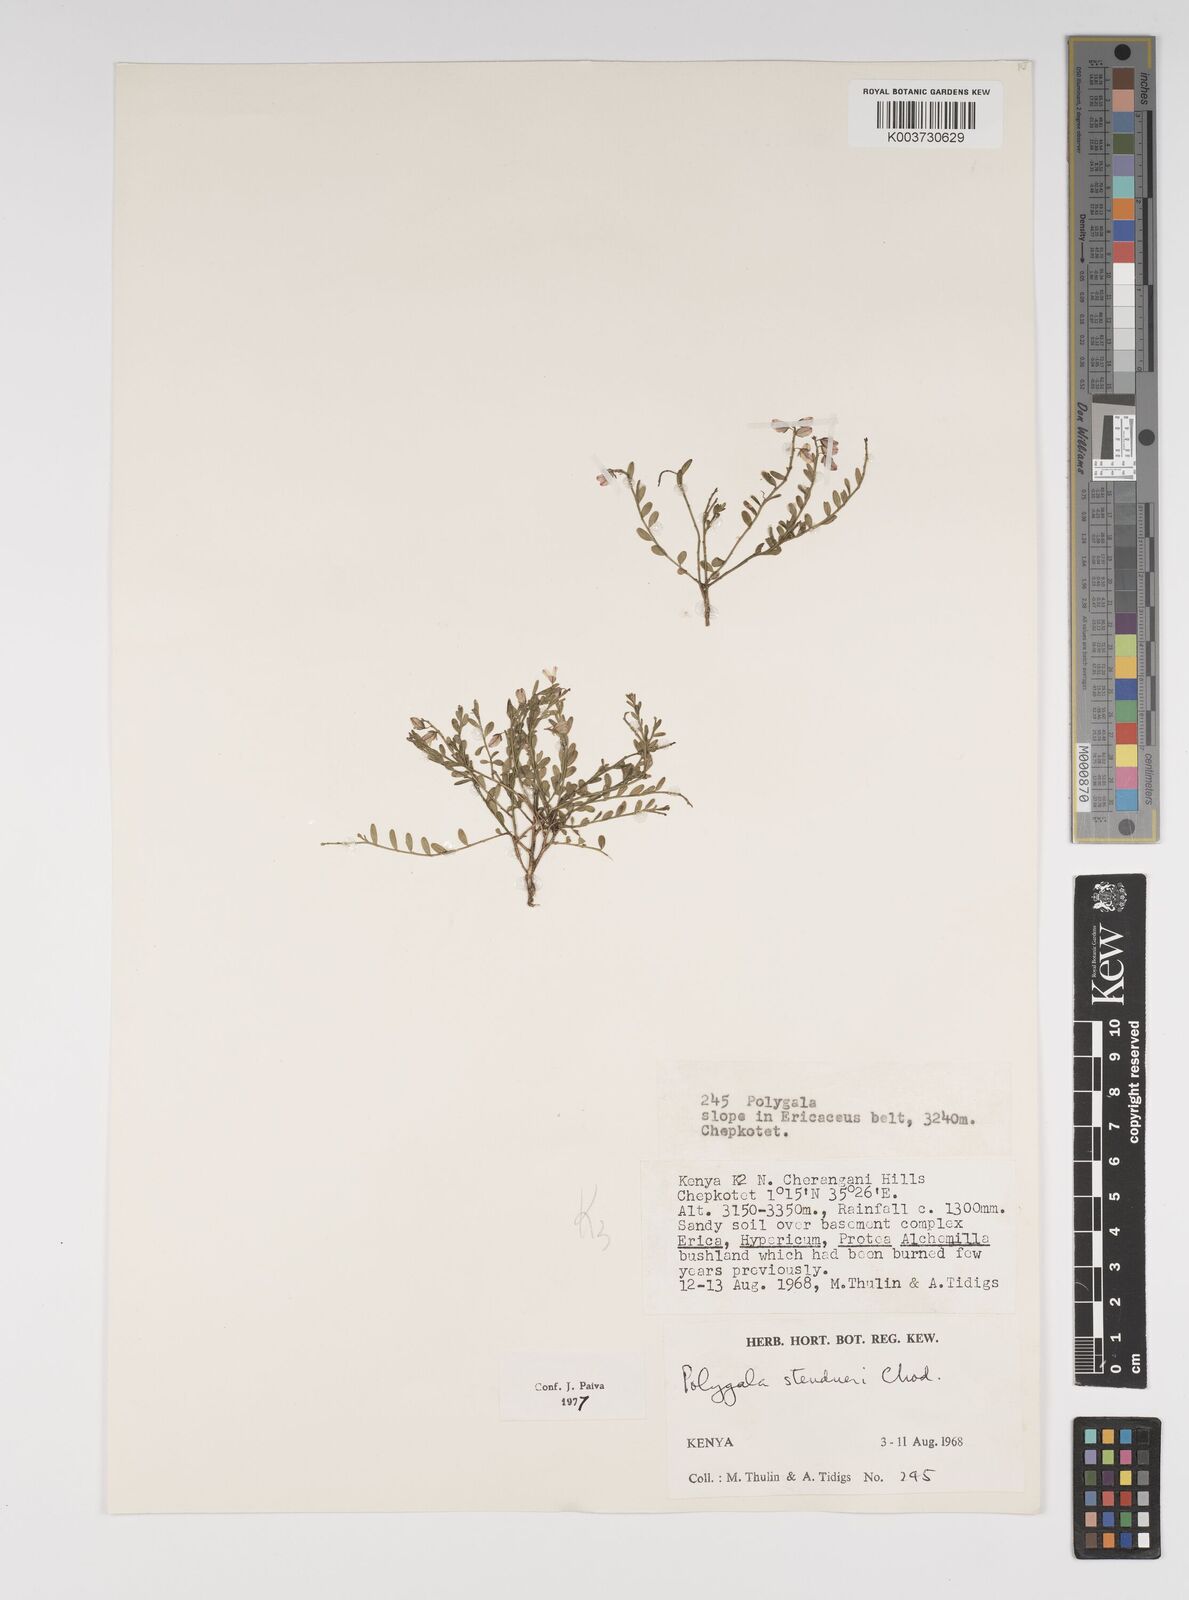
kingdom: Plantae
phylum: Tracheophyta
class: Magnoliopsida
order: Fabales
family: Polygalaceae
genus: Polygala
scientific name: Polygala steudneri
